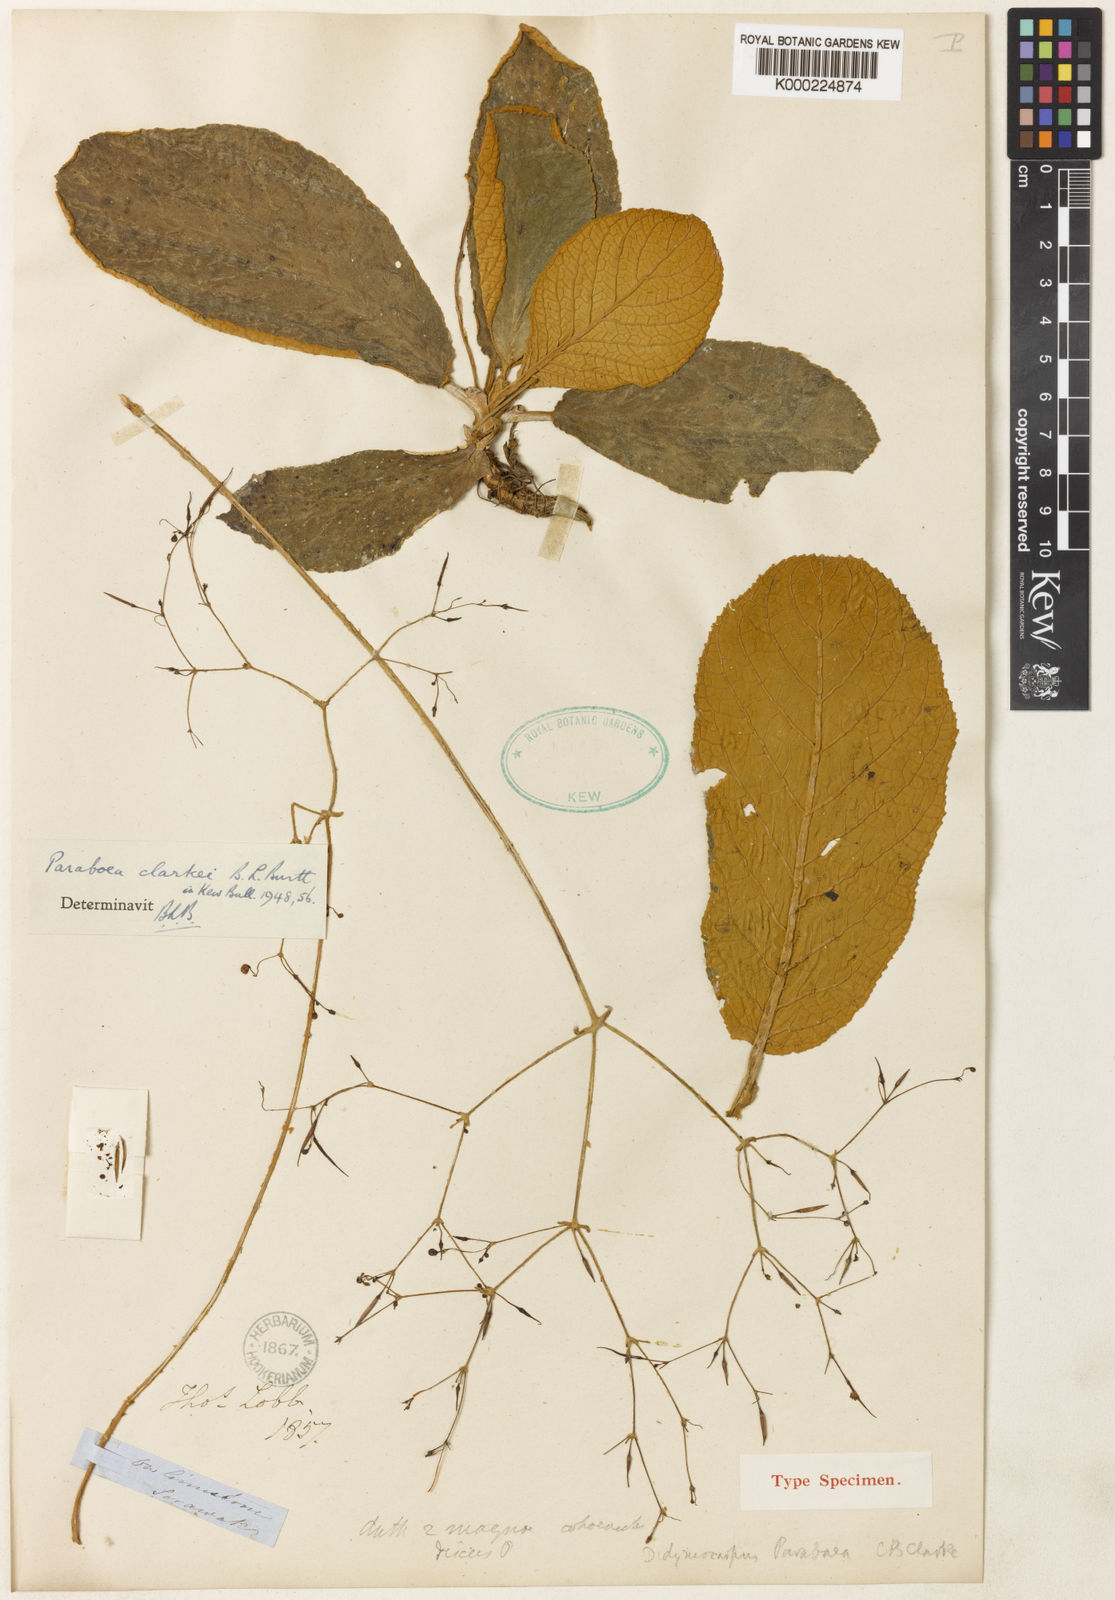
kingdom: Plantae
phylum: Tracheophyta
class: Magnoliopsida
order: Lamiales
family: Gesneriaceae
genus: Paraboea
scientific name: Paraboea clarkei
